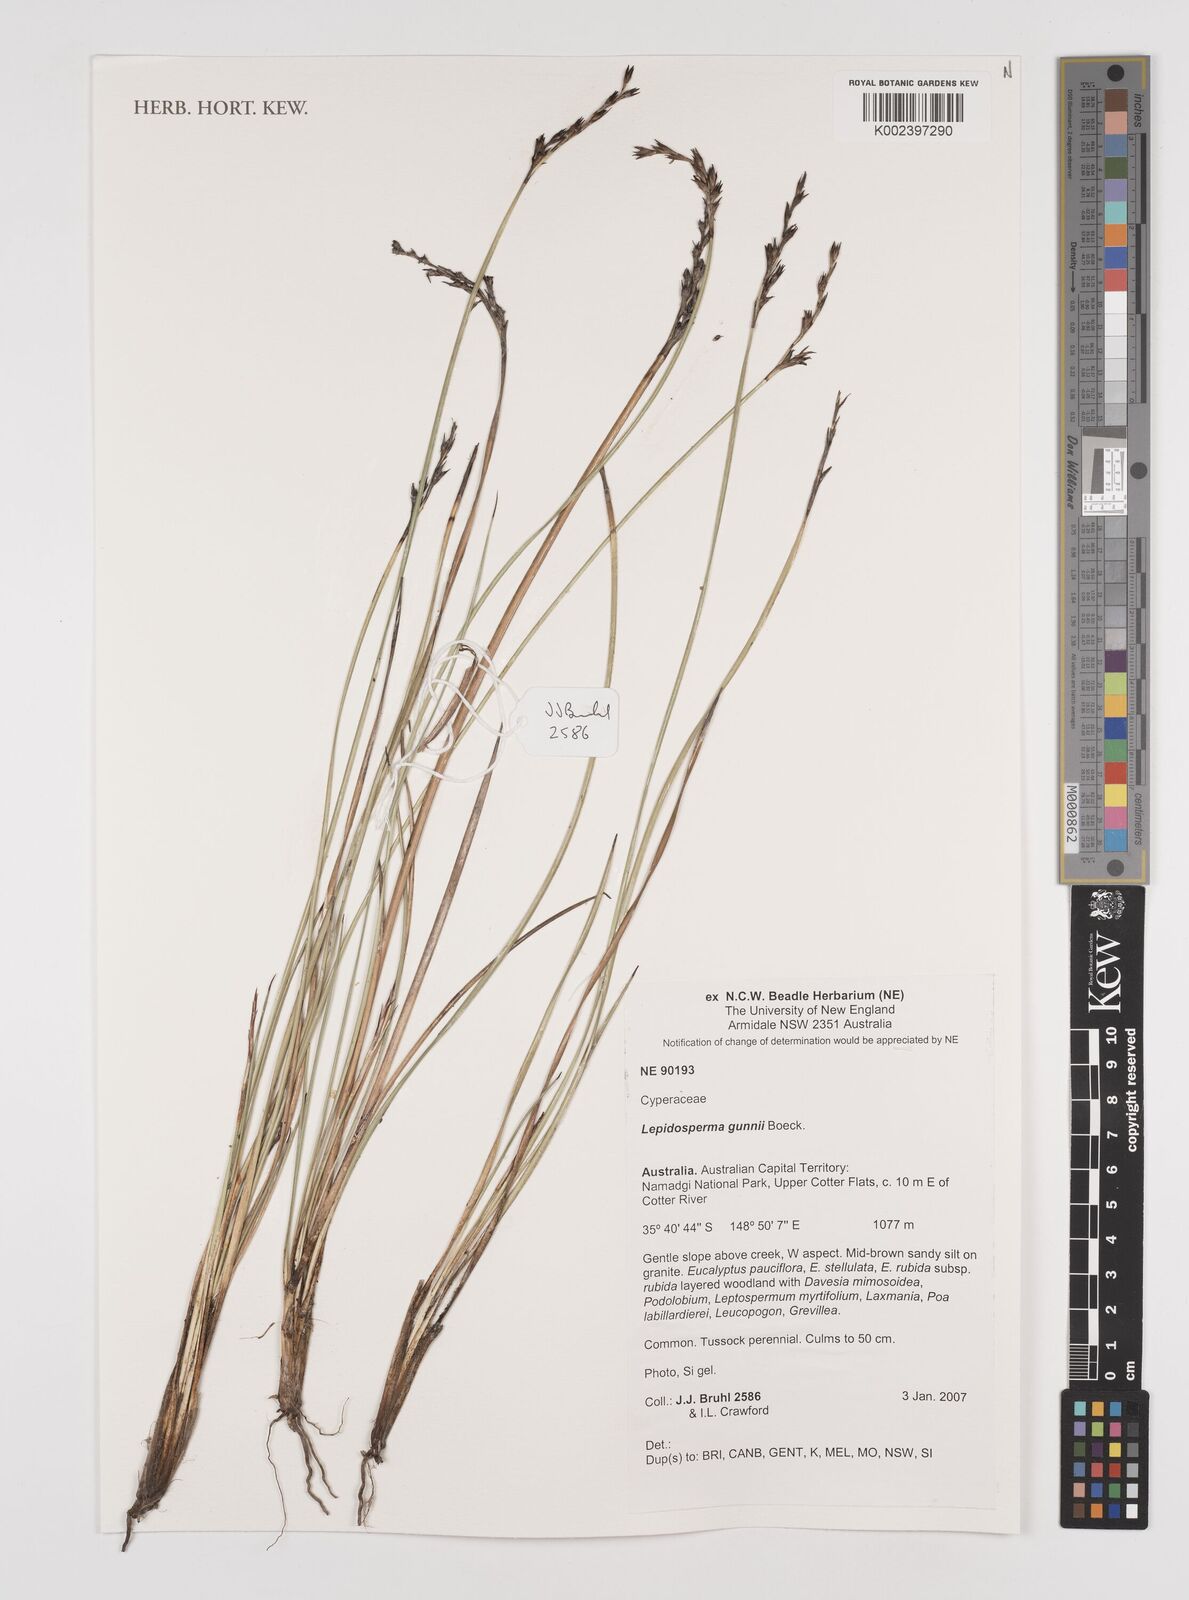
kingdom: Plantae
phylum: Tracheophyta
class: Liliopsida
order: Poales
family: Cyperaceae
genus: Lepidosperma
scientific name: Lepidosperma gunnii
